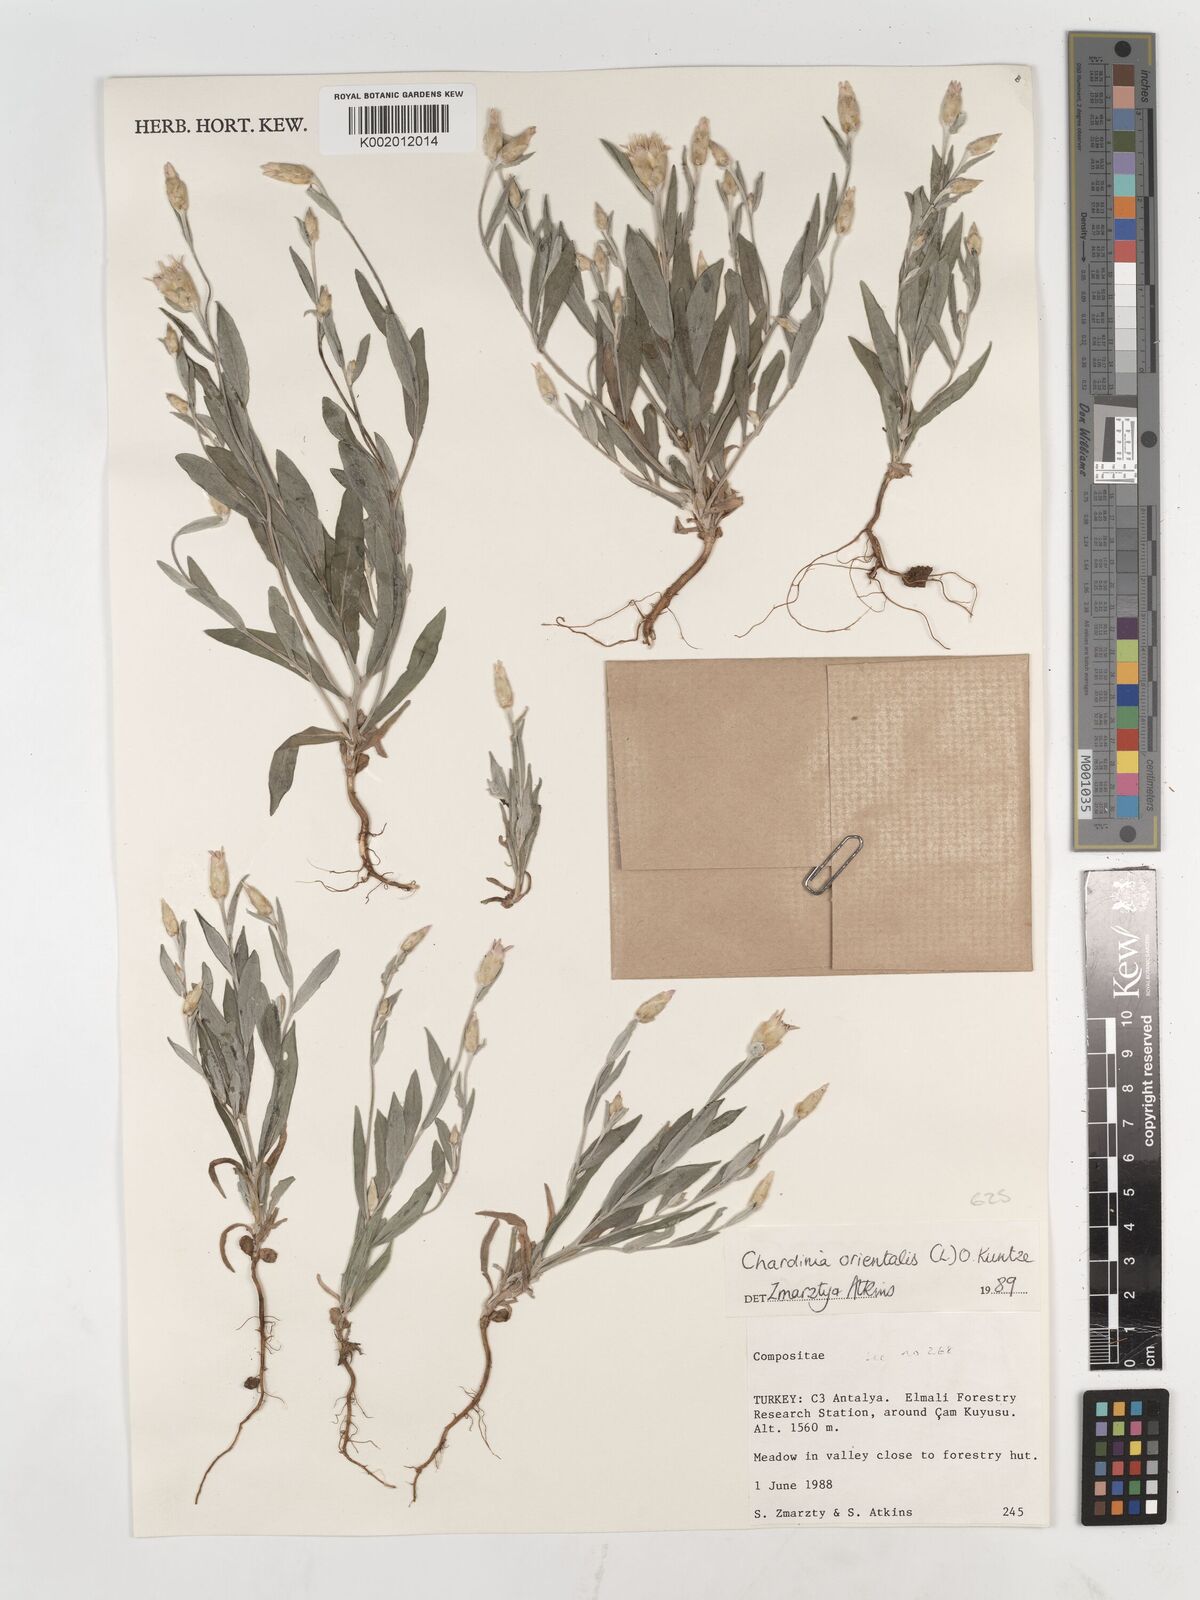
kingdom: Plantae
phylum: Tracheophyta
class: Magnoliopsida
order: Asterales
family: Asteraceae
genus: Chardinia
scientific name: Chardinia orientalis
